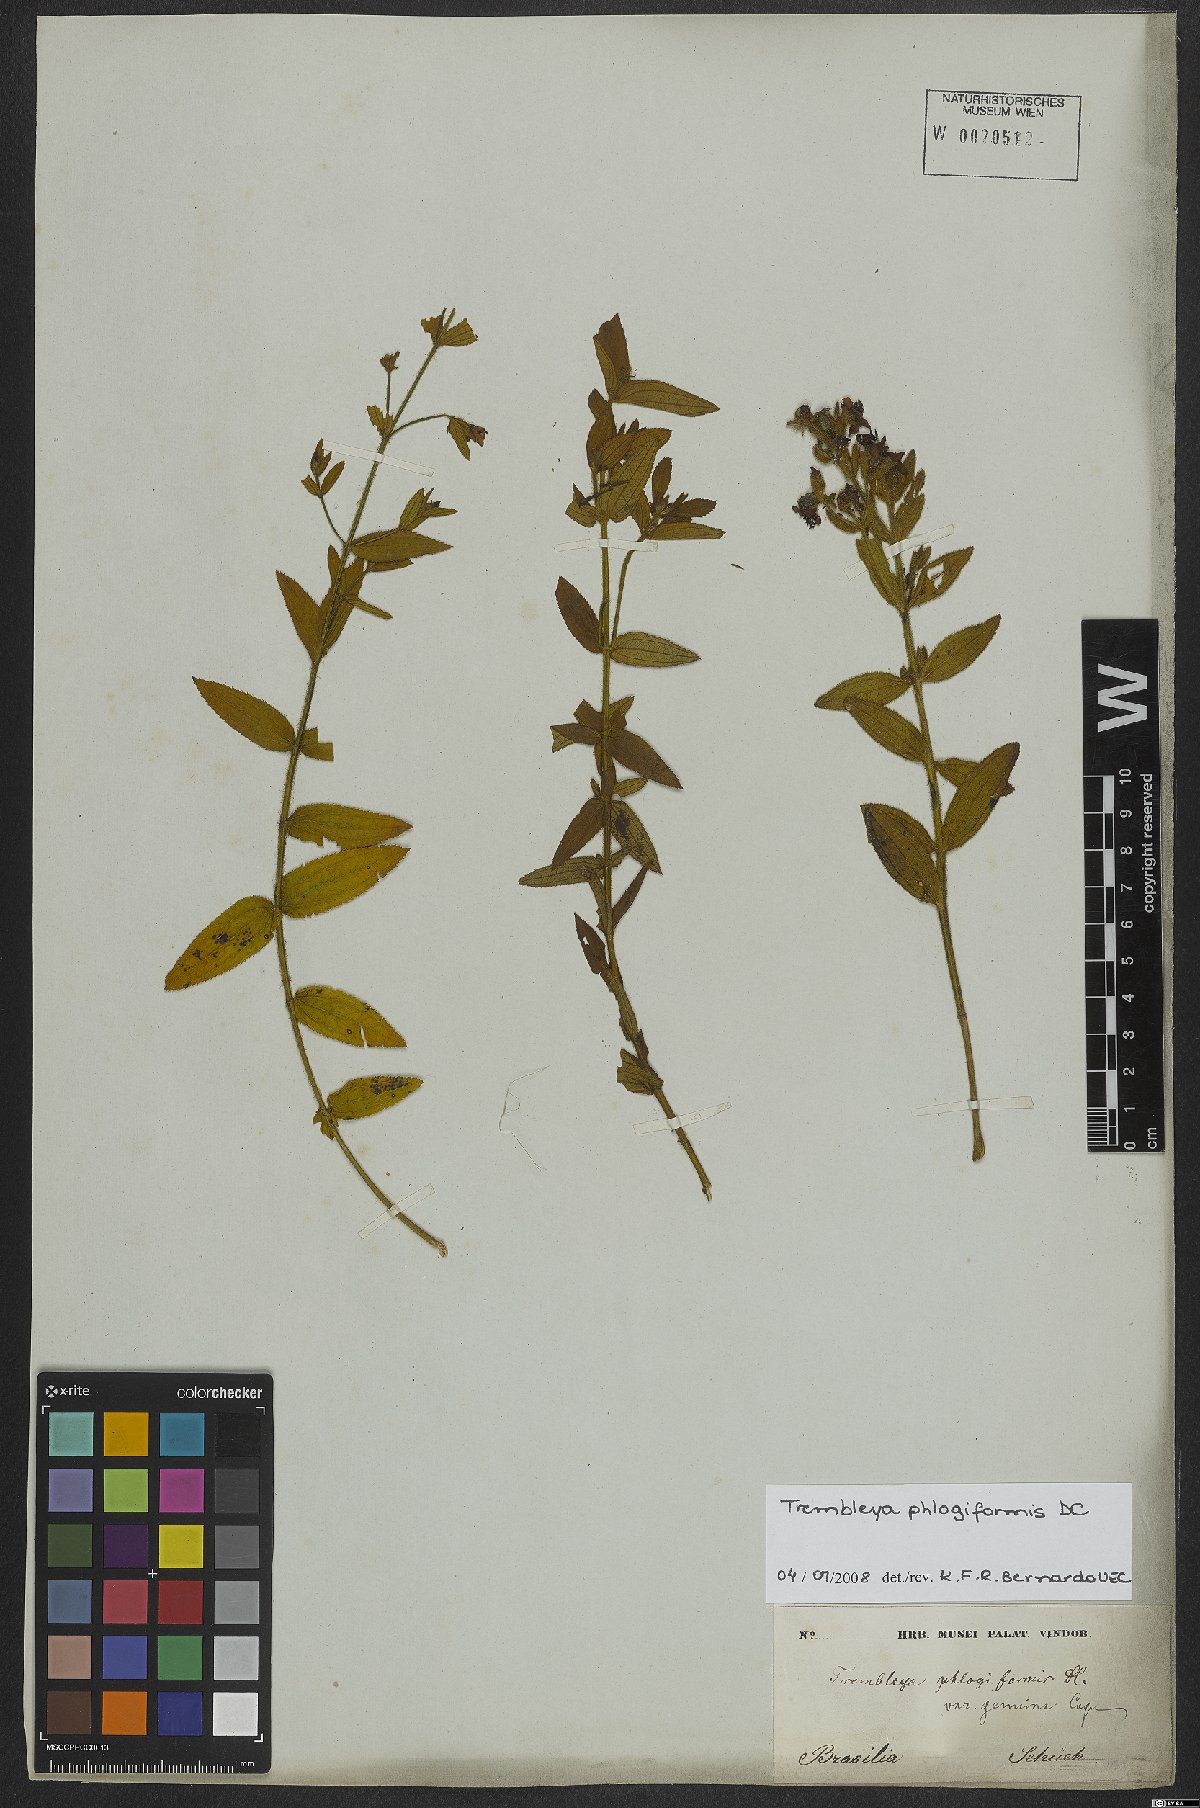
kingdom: Plantae
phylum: Tracheophyta
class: Magnoliopsida
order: Myrtales
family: Melastomataceae
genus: Microlicia
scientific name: Microlicia phlogiformis
